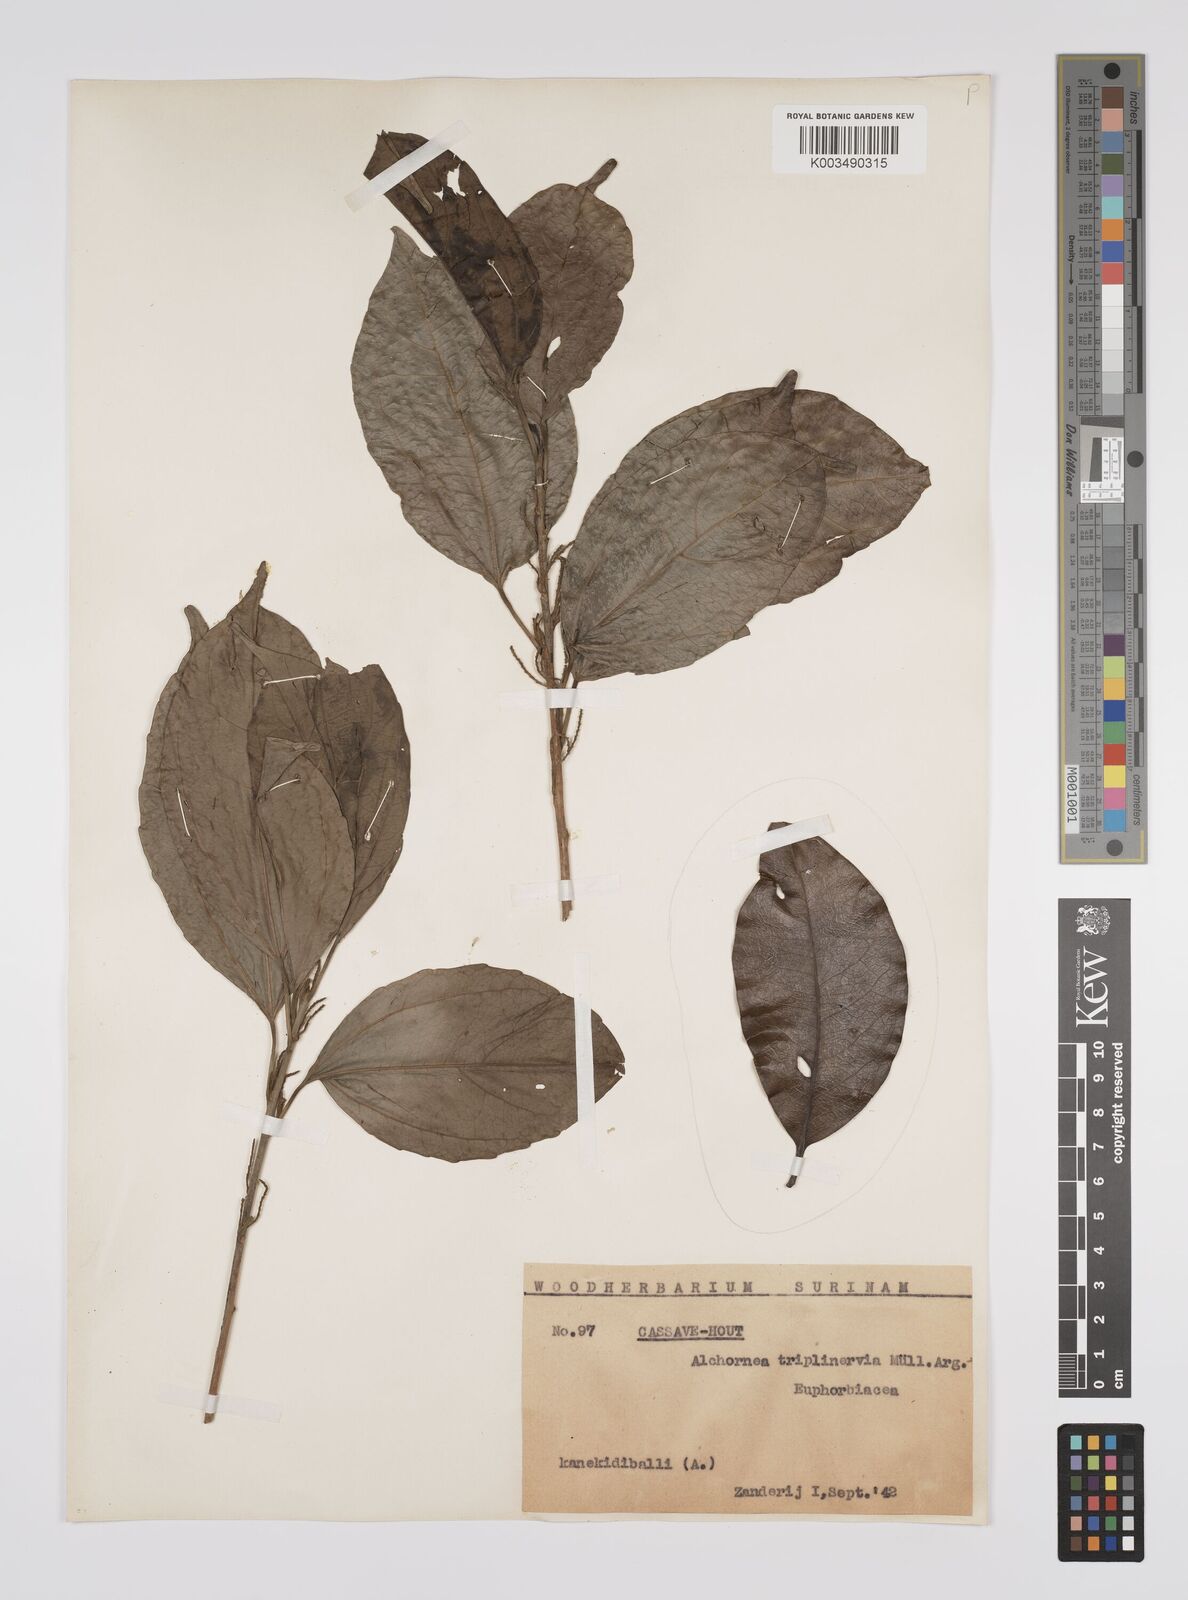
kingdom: Plantae
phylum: Tracheophyta
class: Magnoliopsida
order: Malpighiales
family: Euphorbiaceae
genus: Alchornea
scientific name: Alchornea triplinervia
